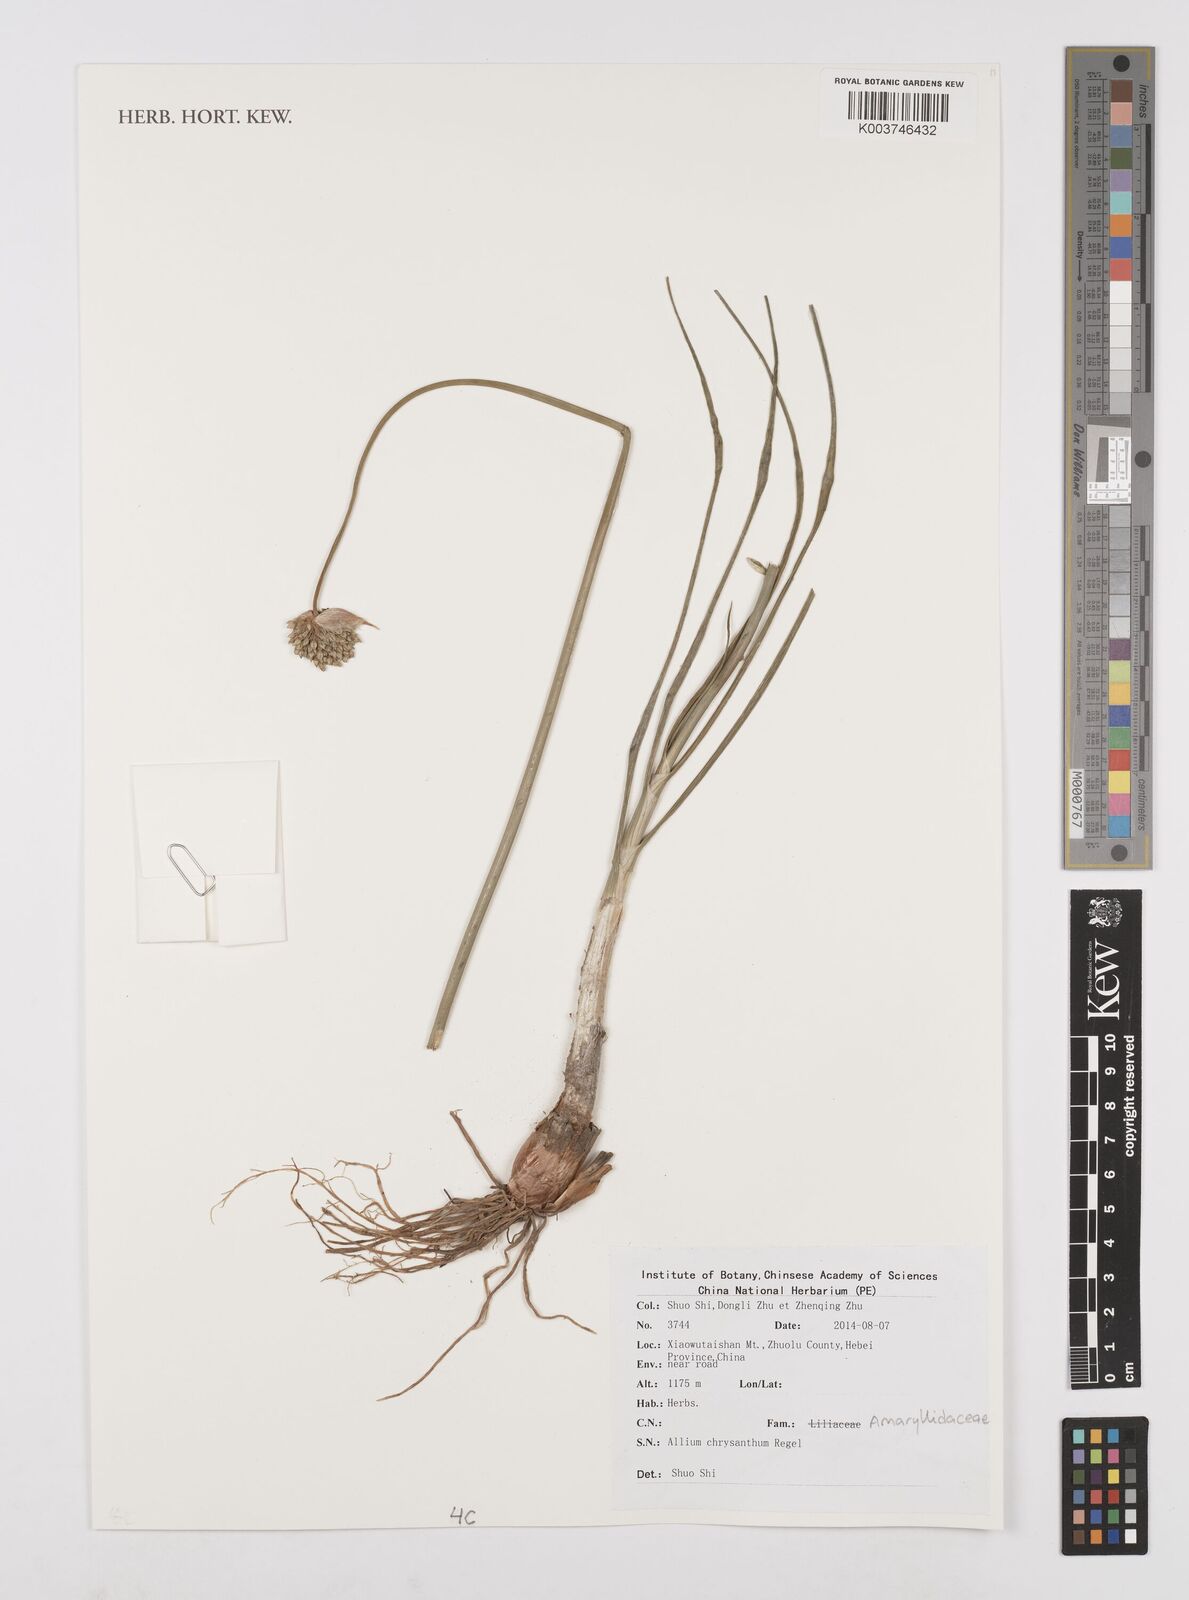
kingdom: Plantae
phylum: Tracheophyta
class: Liliopsida
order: Asparagales
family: Amaryllidaceae
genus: Allium
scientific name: Allium chrysanthum
